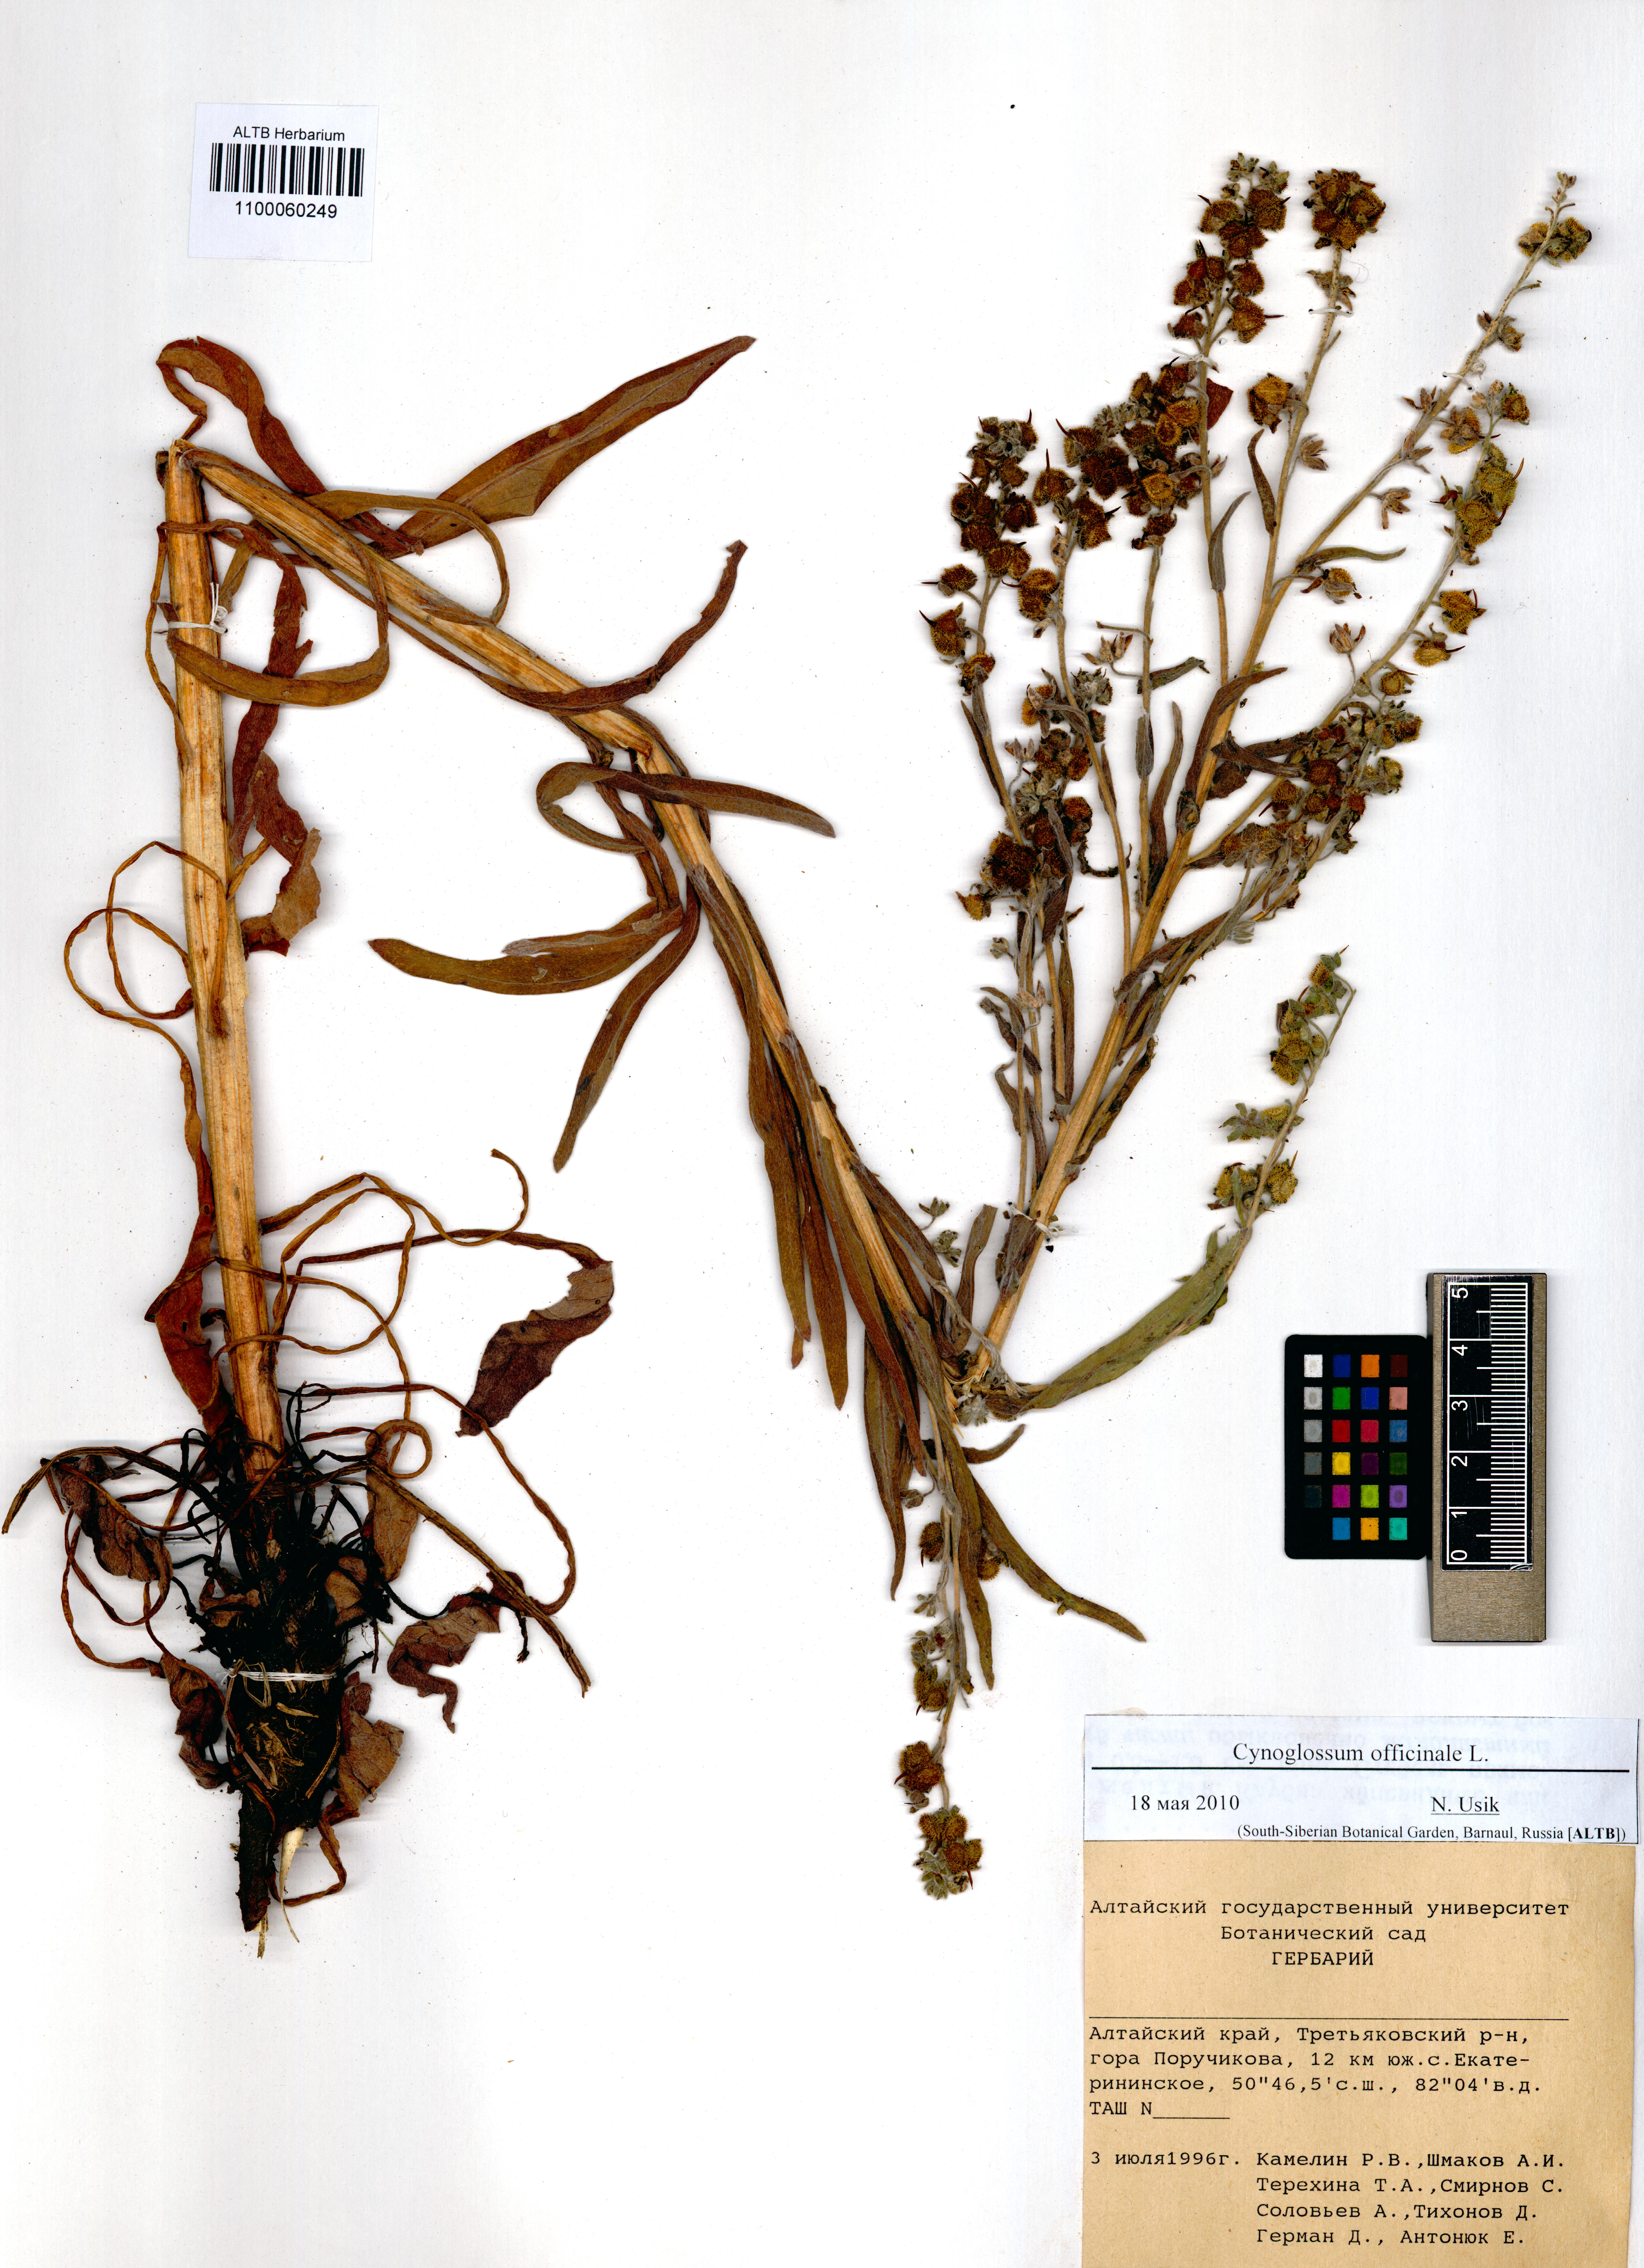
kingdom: Plantae
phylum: Tracheophyta
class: Magnoliopsida
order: Boraginales
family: Boraginaceae
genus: Cynoglossum
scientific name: Cynoglossum officinale
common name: Hound's-tongue
